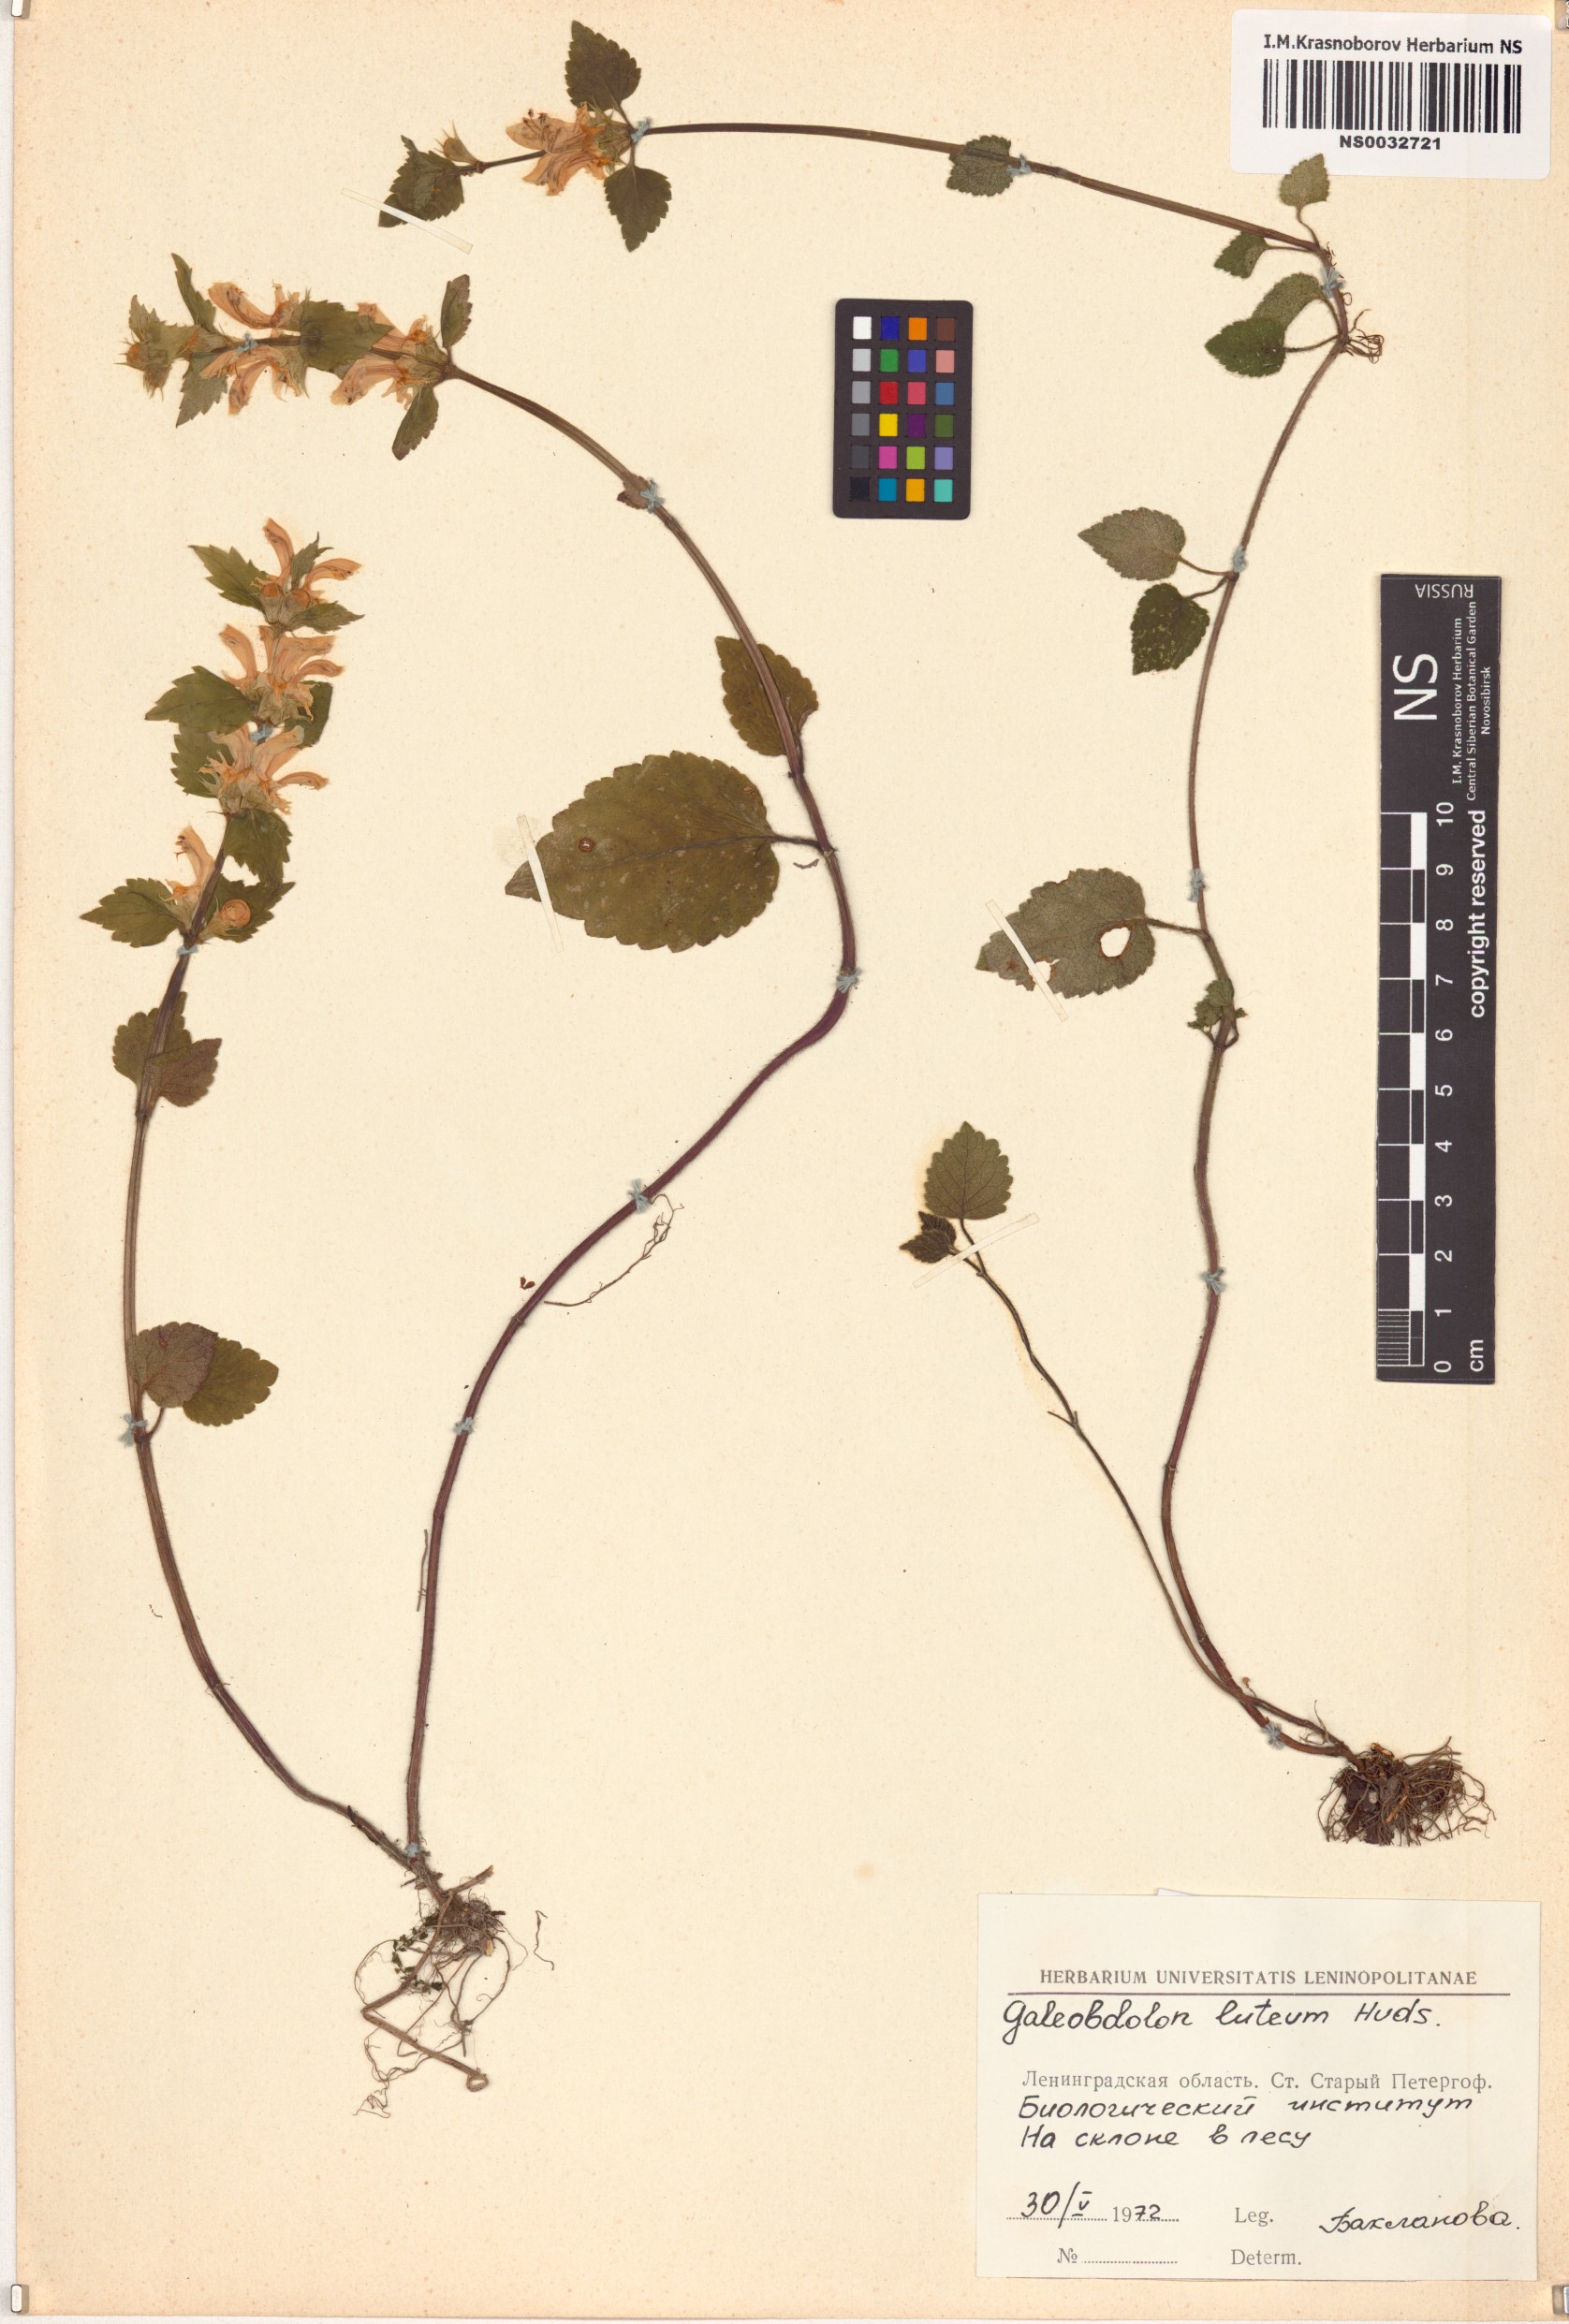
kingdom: Plantae
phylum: Tracheophyta
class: Magnoliopsida
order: Lamiales
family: Lamiaceae
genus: Lamium
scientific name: Lamium galeobdolon
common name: Yellow archangel
